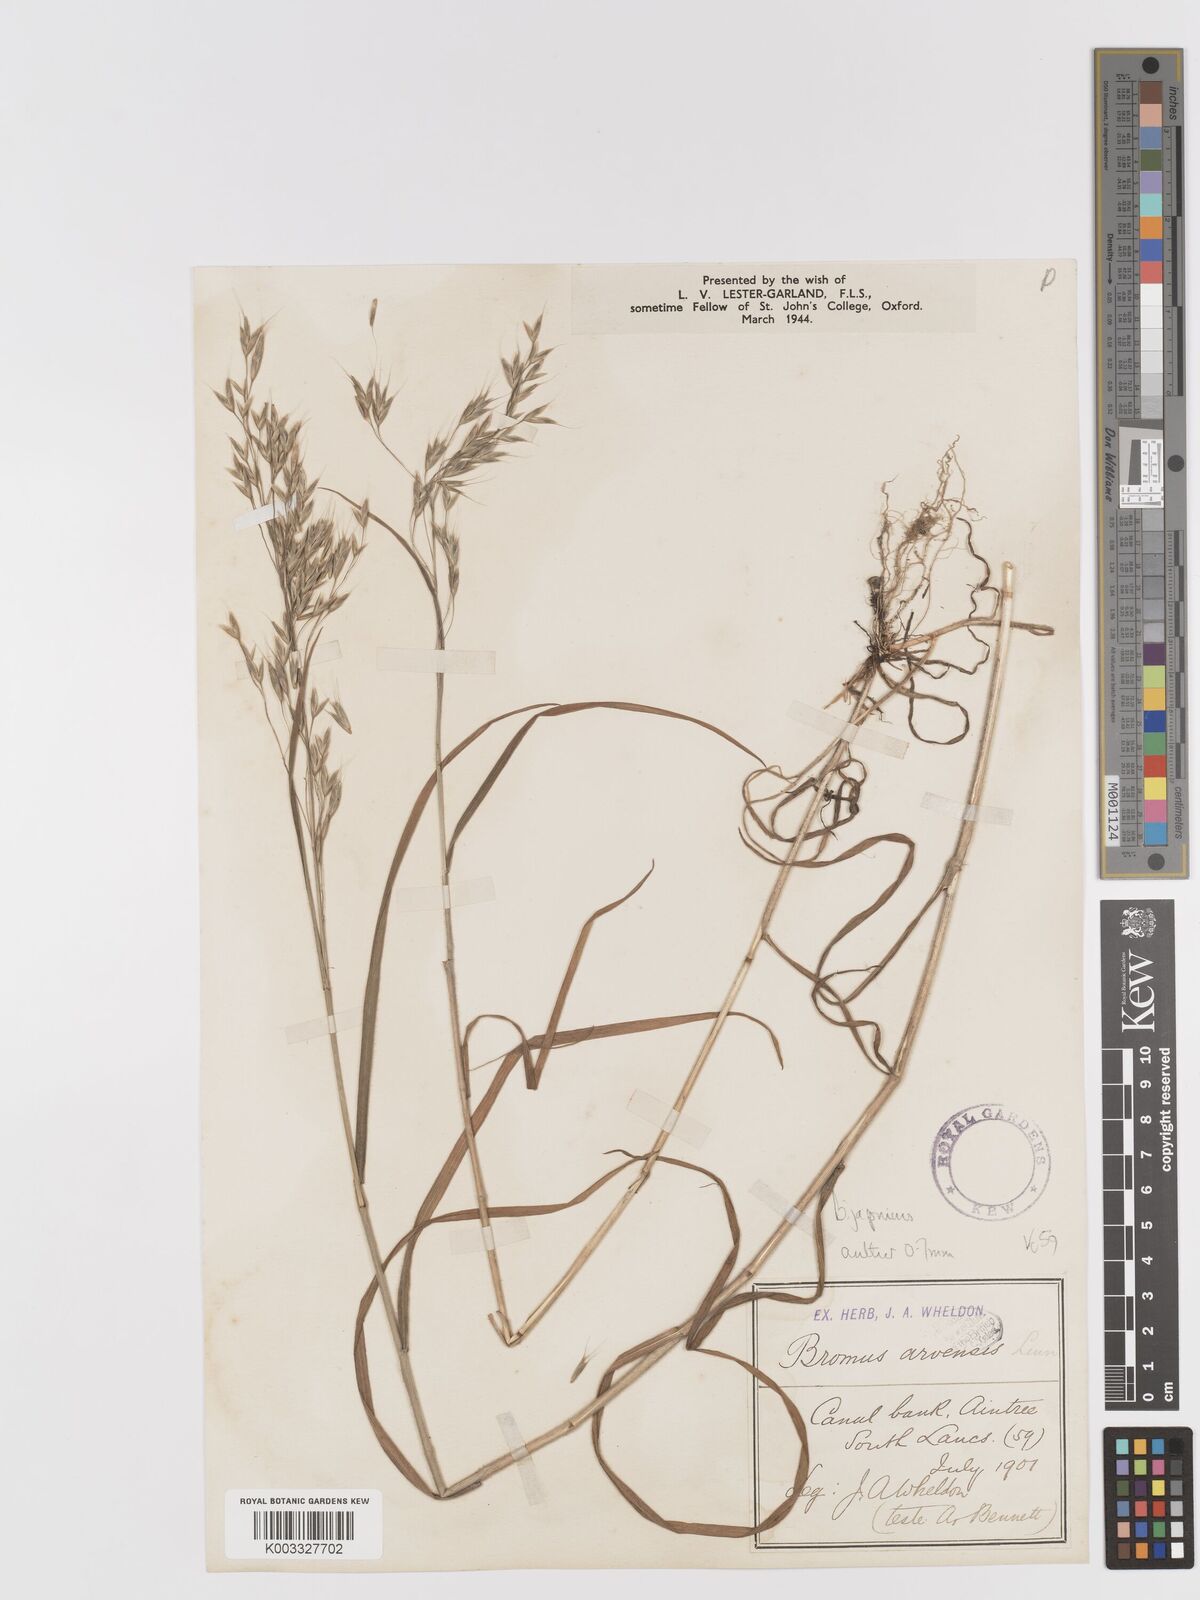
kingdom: Plantae
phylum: Tracheophyta
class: Liliopsida
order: Poales
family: Poaceae
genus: Bromus
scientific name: Bromus japonicus
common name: Japanese brome
